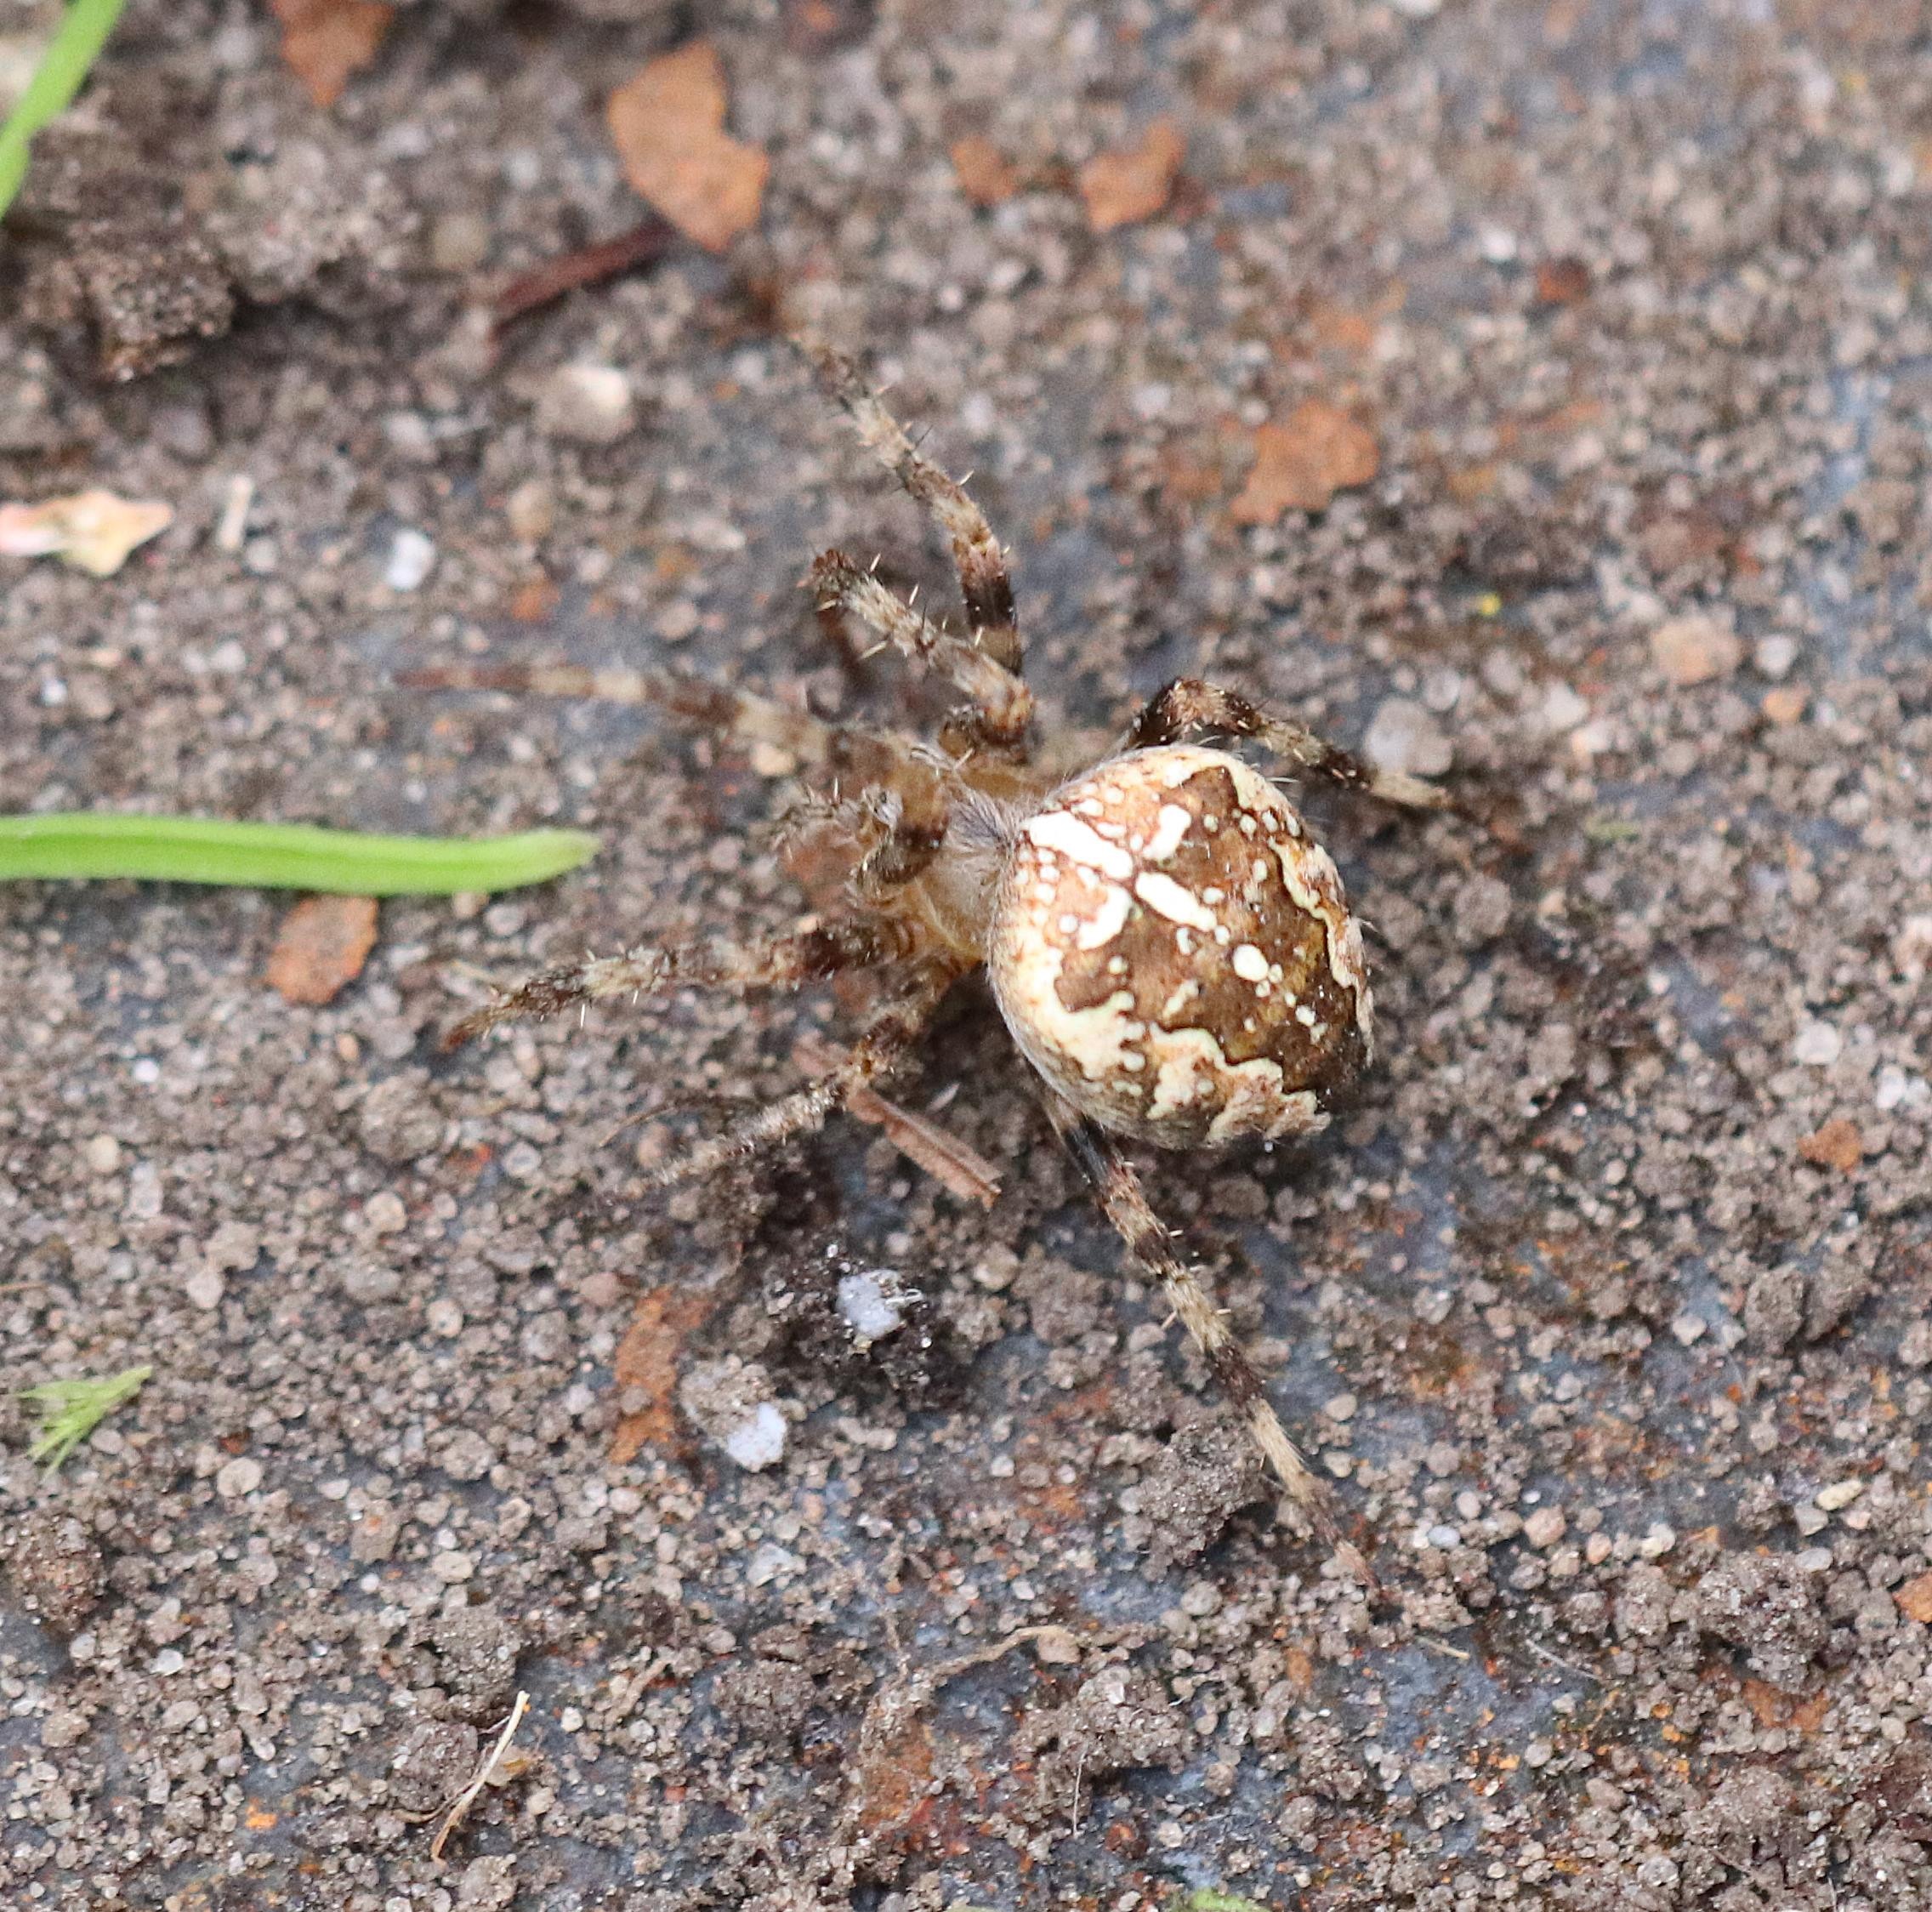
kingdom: Animalia
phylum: Arthropoda
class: Arachnida
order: Araneae
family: Araneidae
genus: Araneus
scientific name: Araneus diadematus
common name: Korsedderkop
